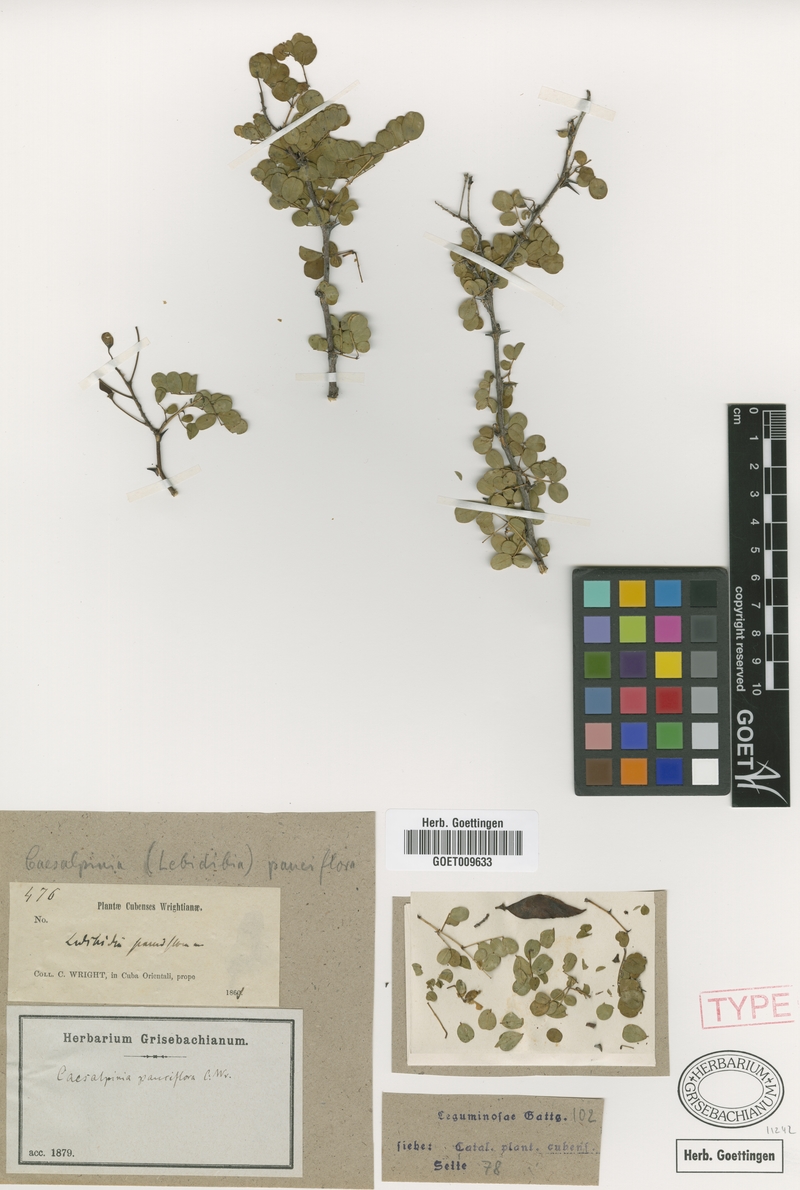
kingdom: Plantae
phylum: Tracheophyta
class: Magnoliopsida
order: Fabales
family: Fabaceae
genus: Denisophytum
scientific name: Denisophytum pauciflorum
